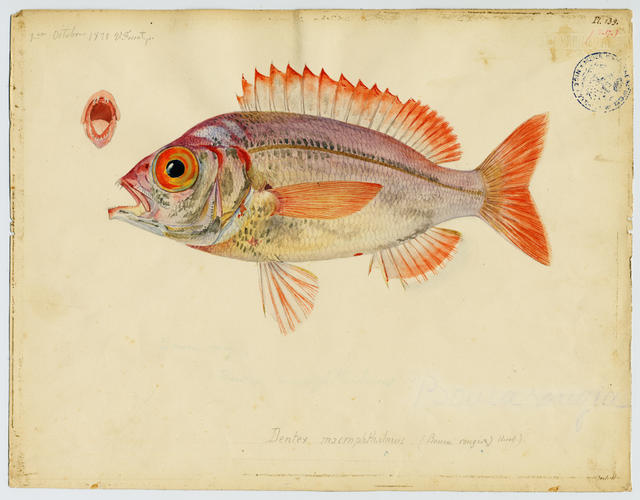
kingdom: Animalia
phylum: Chordata
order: Perciformes
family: Sparidae
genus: Dentex
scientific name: Dentex macrophthalmus
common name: Large-eyed dentex
